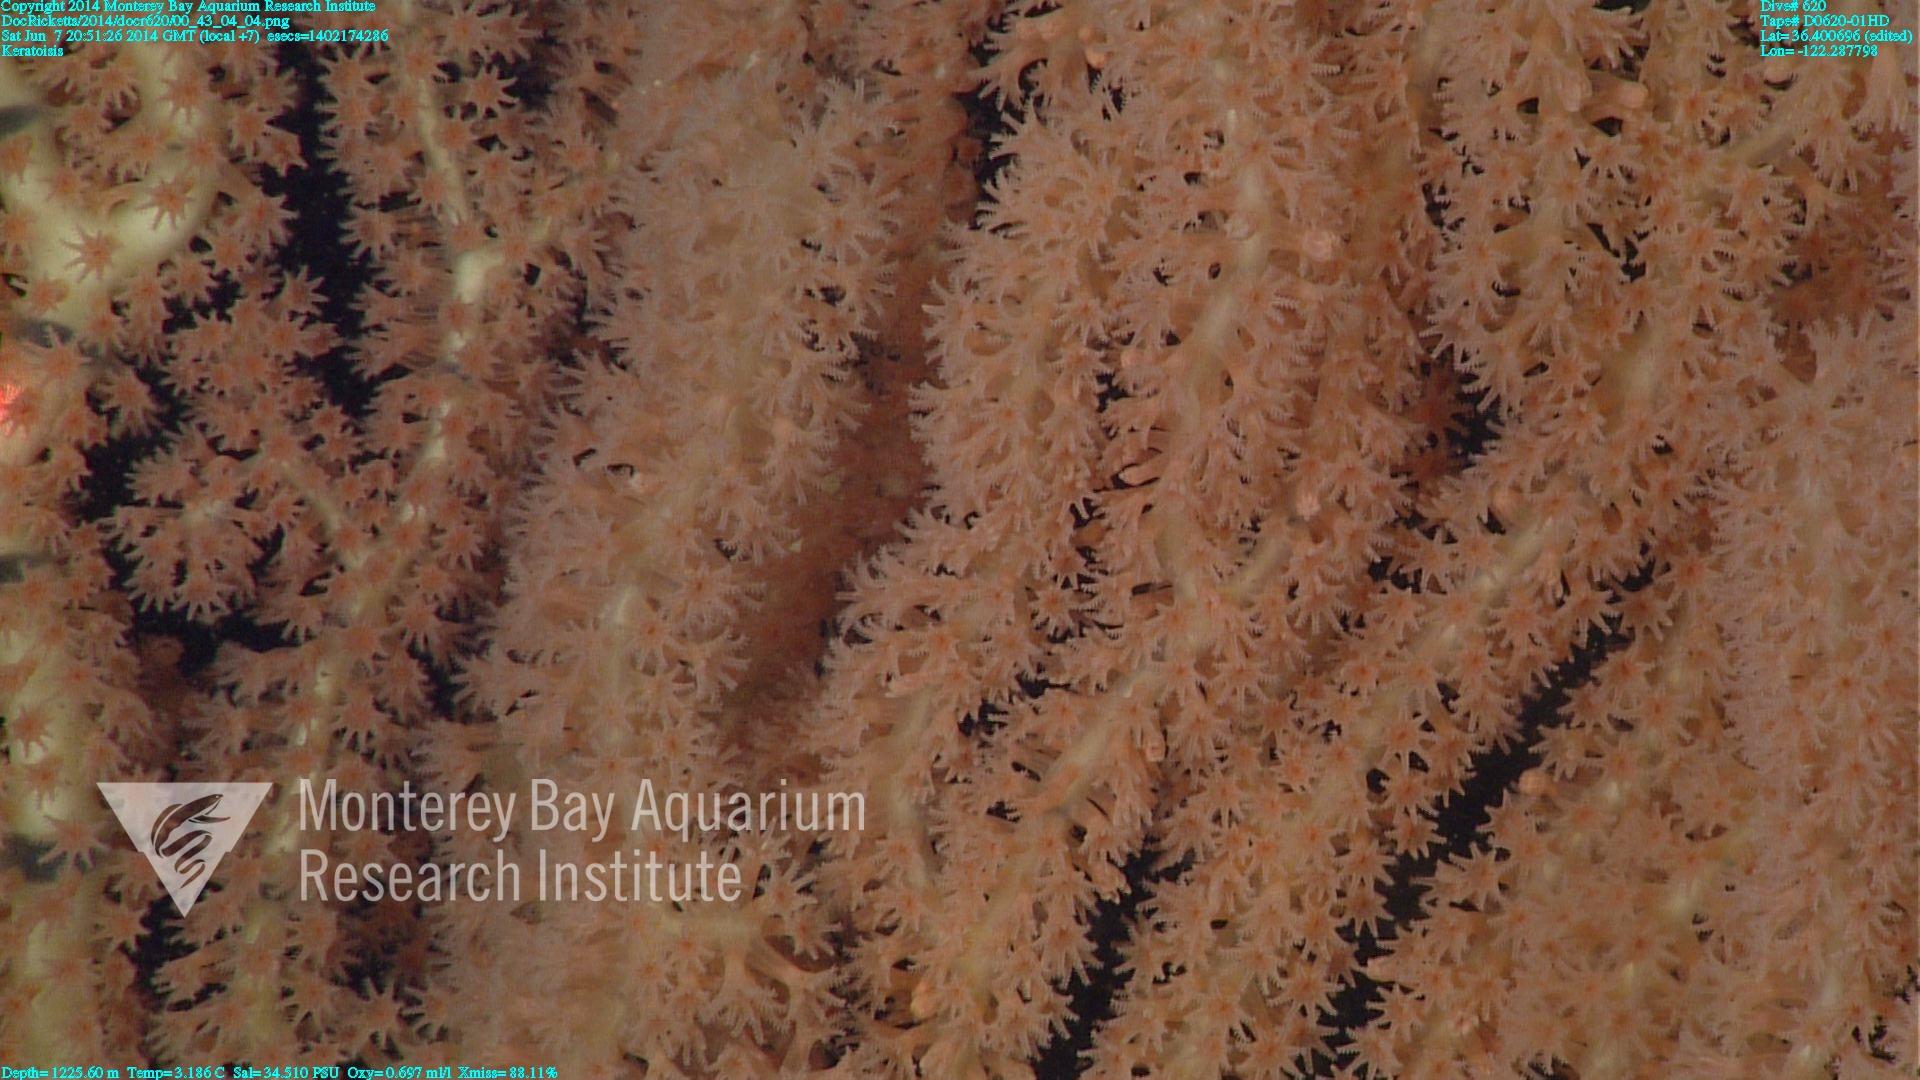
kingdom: Animalia
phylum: Cnidaria
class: Anthozoa
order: Scleralcyonacea
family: Keratoisididae
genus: Keratoisis
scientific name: Keratoisis
